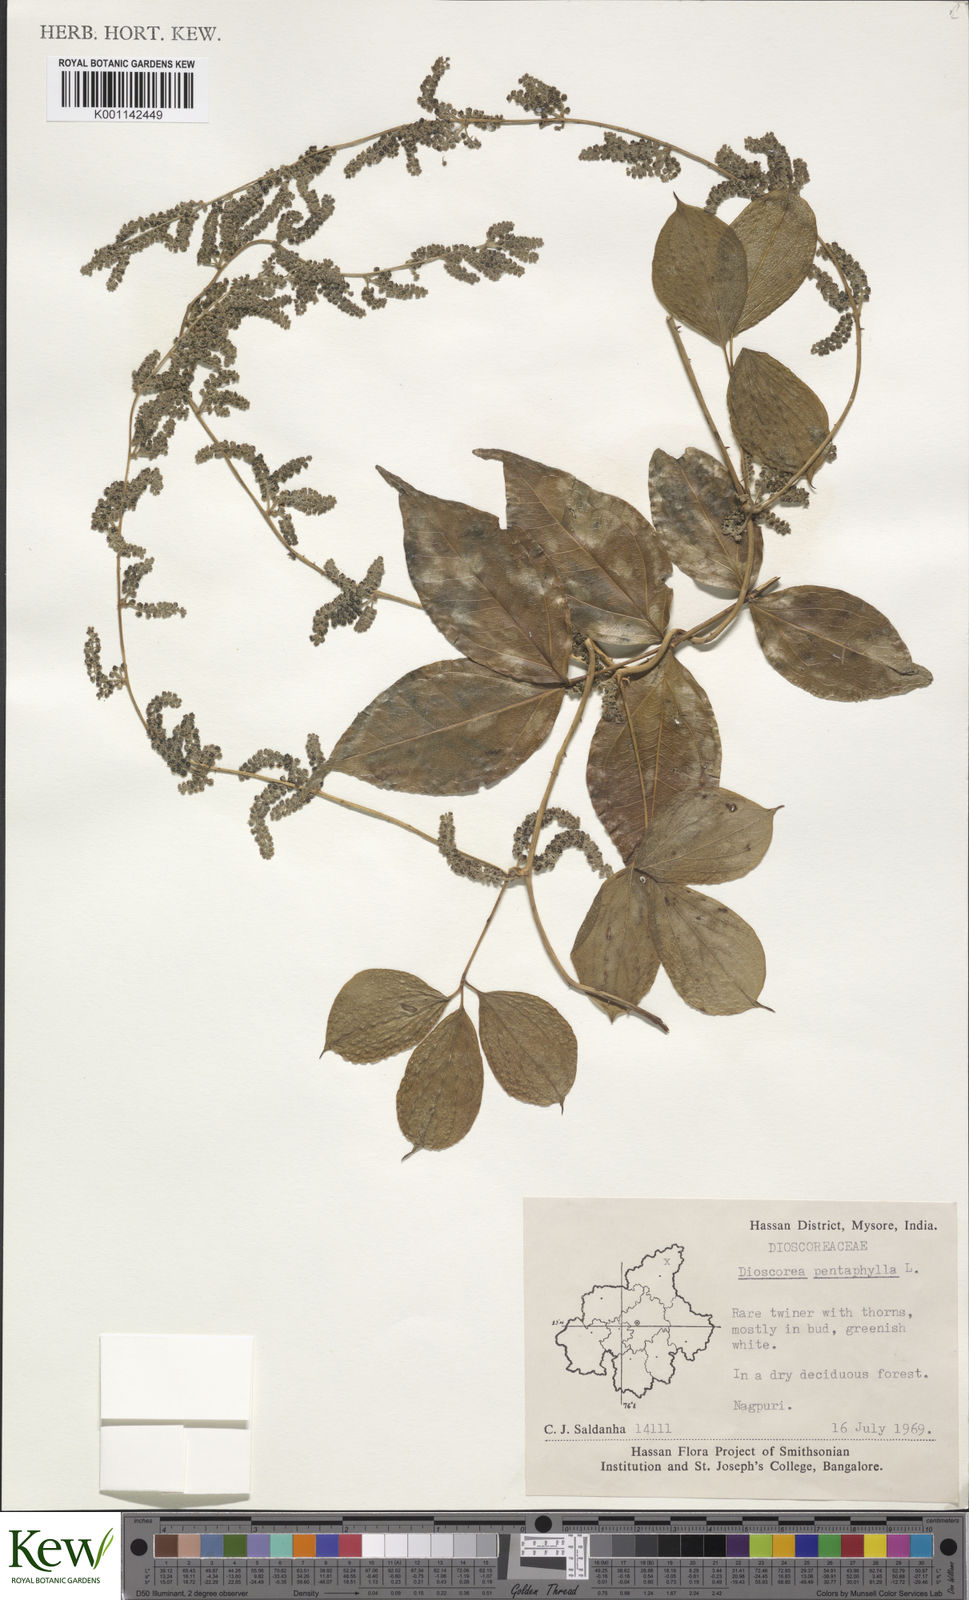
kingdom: Plantae
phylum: Tracheophyta
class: Liliopsida
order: Dioscoreales
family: Dioscoreaceae
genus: Dioscorea
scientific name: Dioscorea pentaphylla
